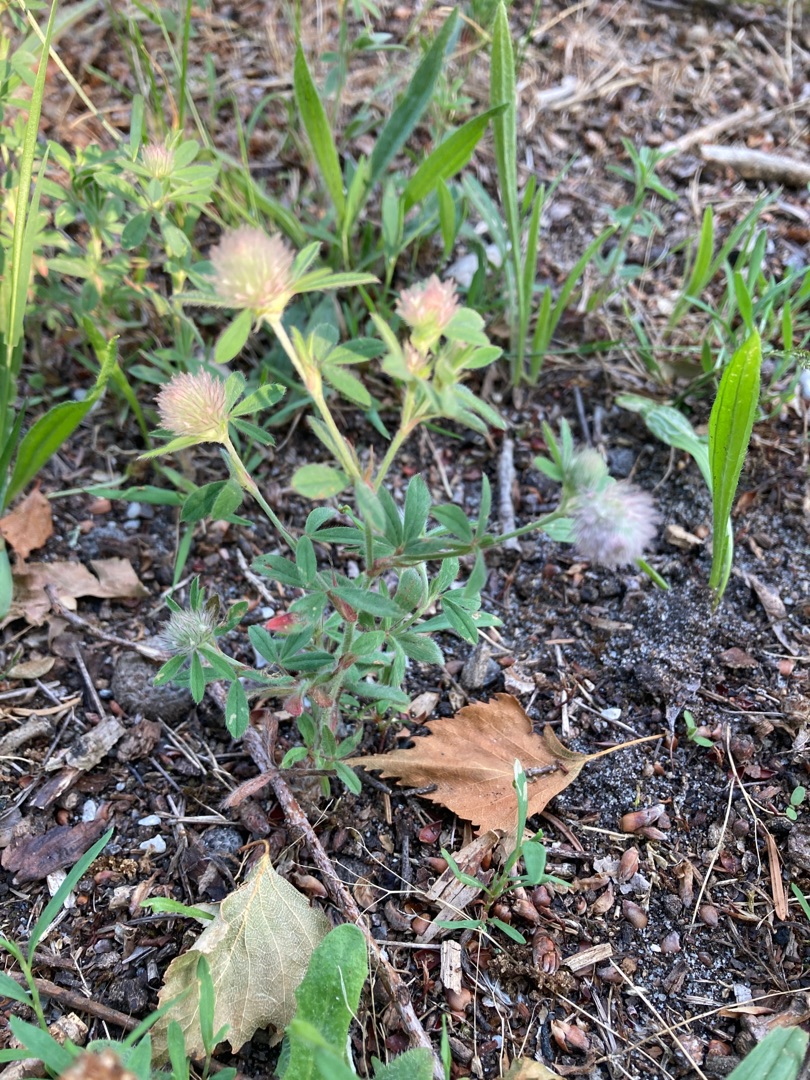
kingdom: Plantae
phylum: Tracheophyta
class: Magnoliopsida
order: Fabales
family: Fabaceae
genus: Trifolium
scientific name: Trifolium arvense
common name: Hare-kløver
